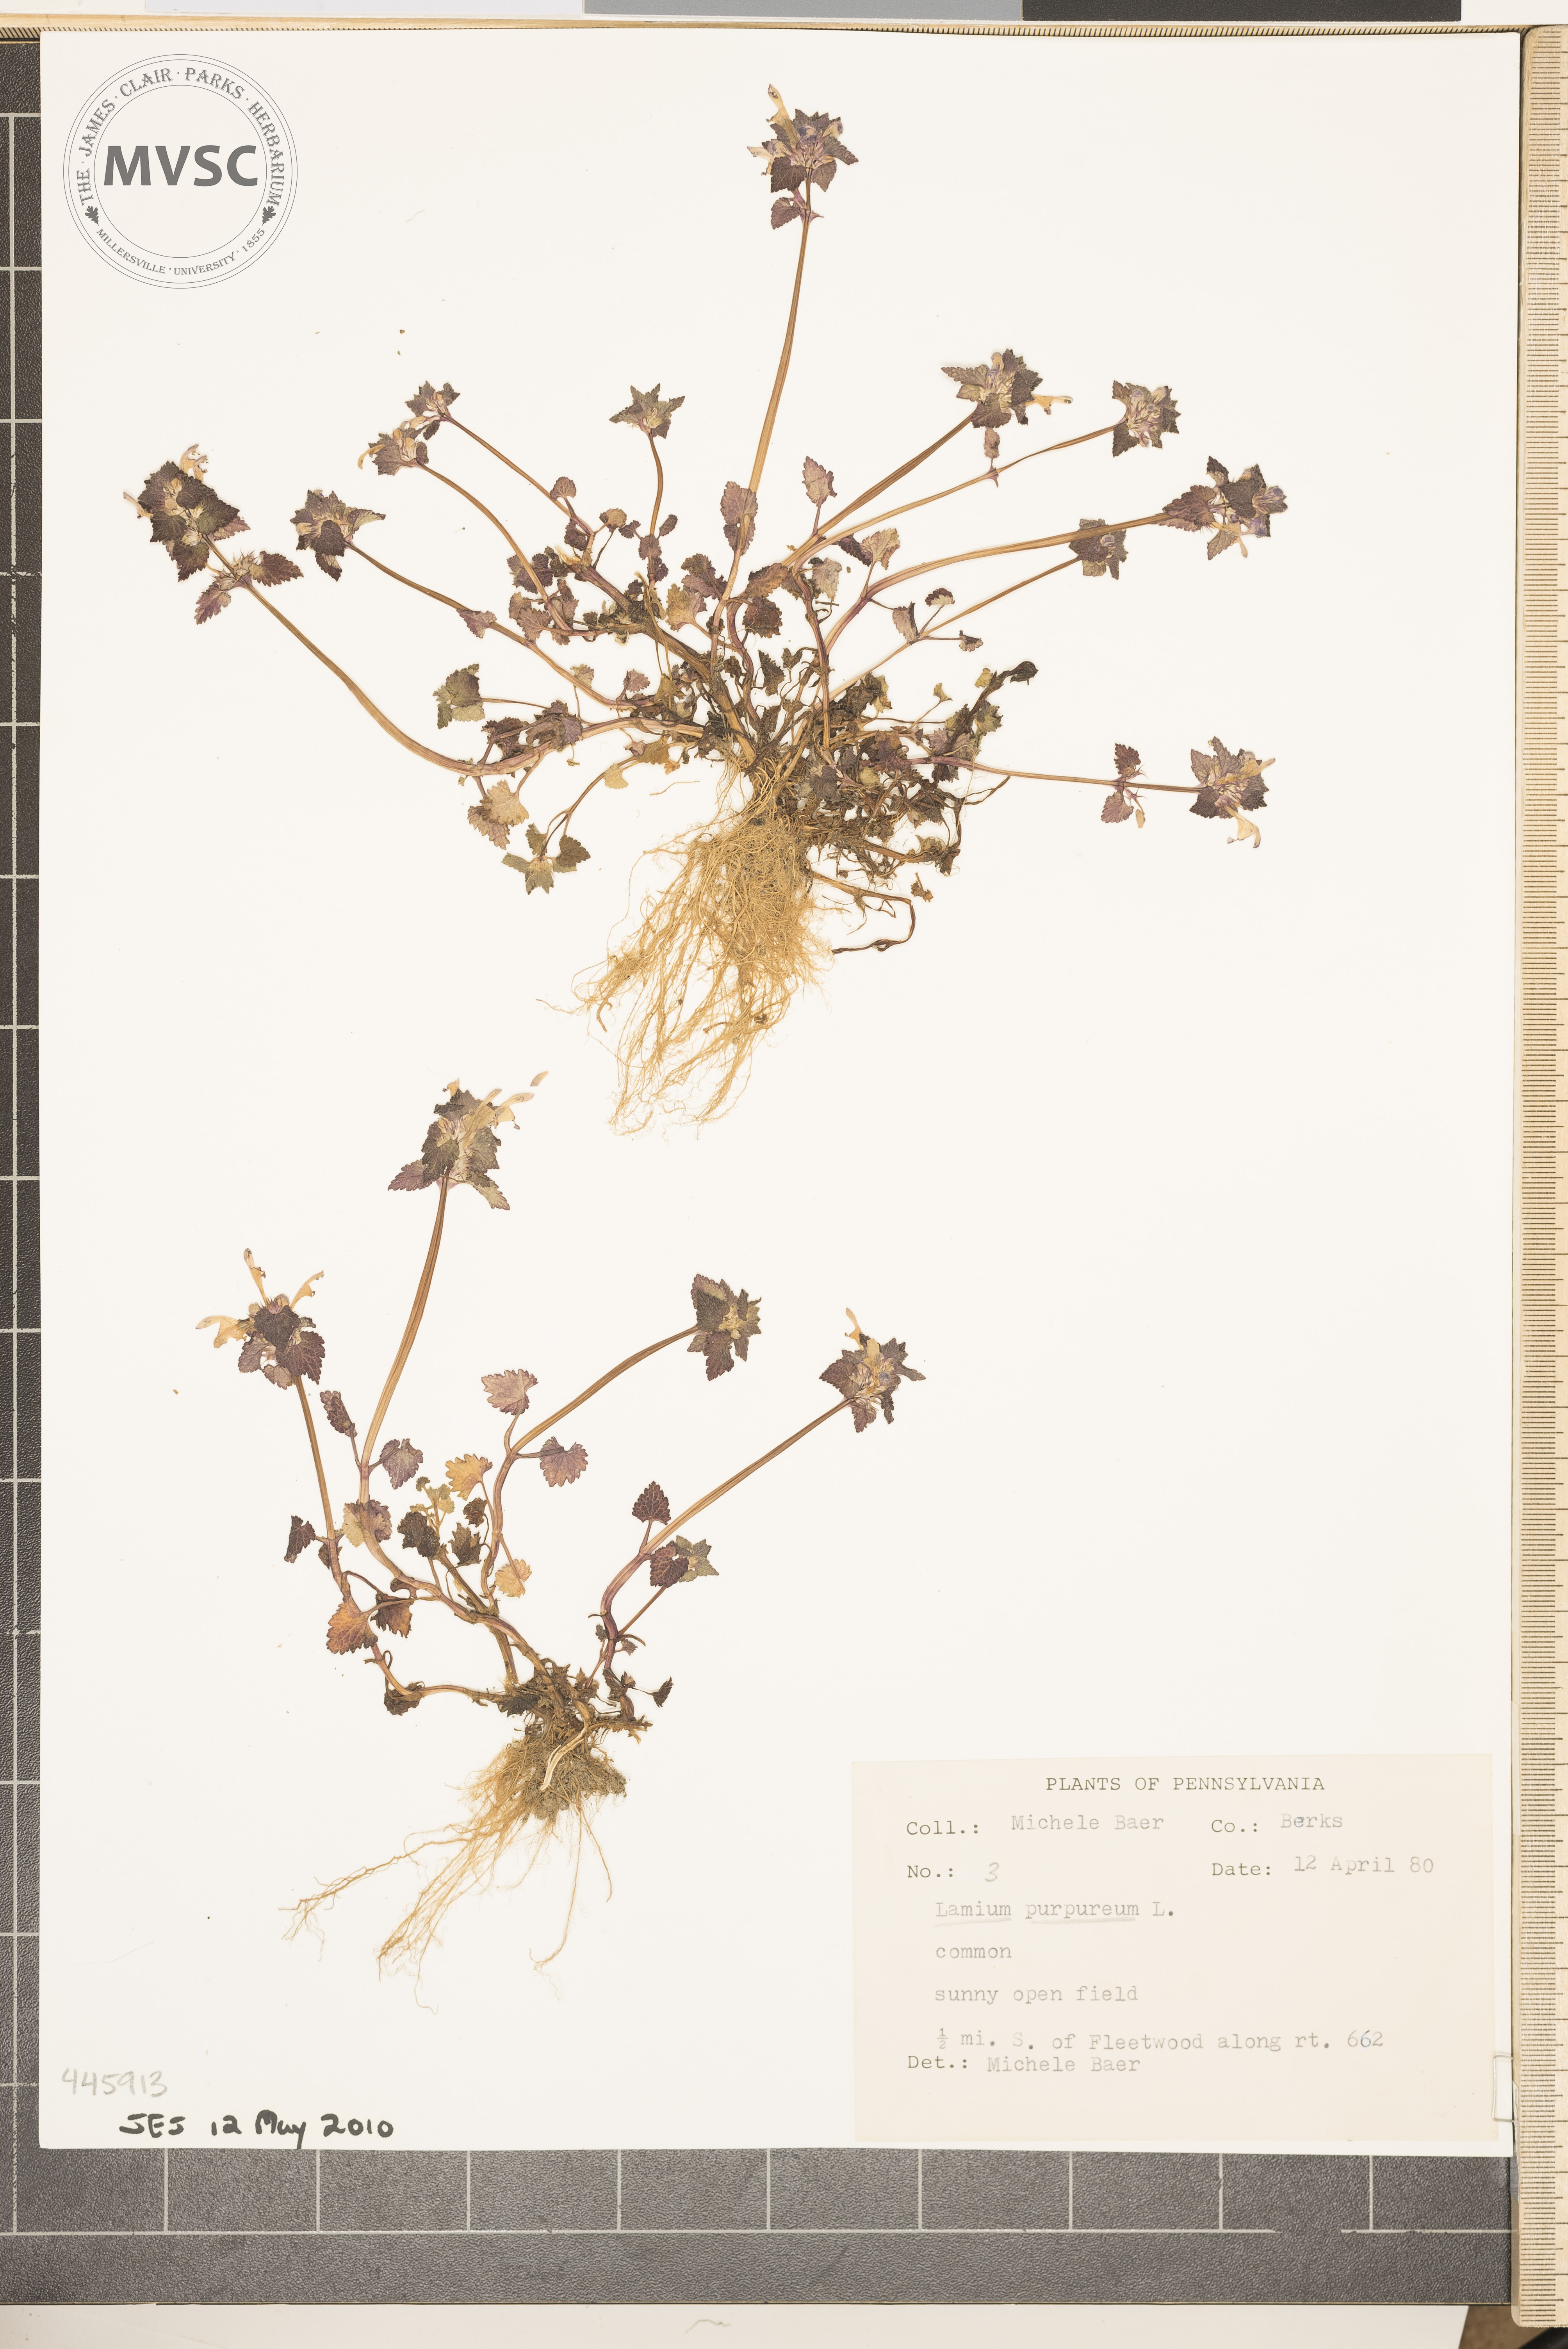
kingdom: Plantae
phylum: Tracheophyta
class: Magnoliopsida
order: Lamiales
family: Lamiaceae
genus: Lamium
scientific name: Lamium purpureum
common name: Red dead-nettle
